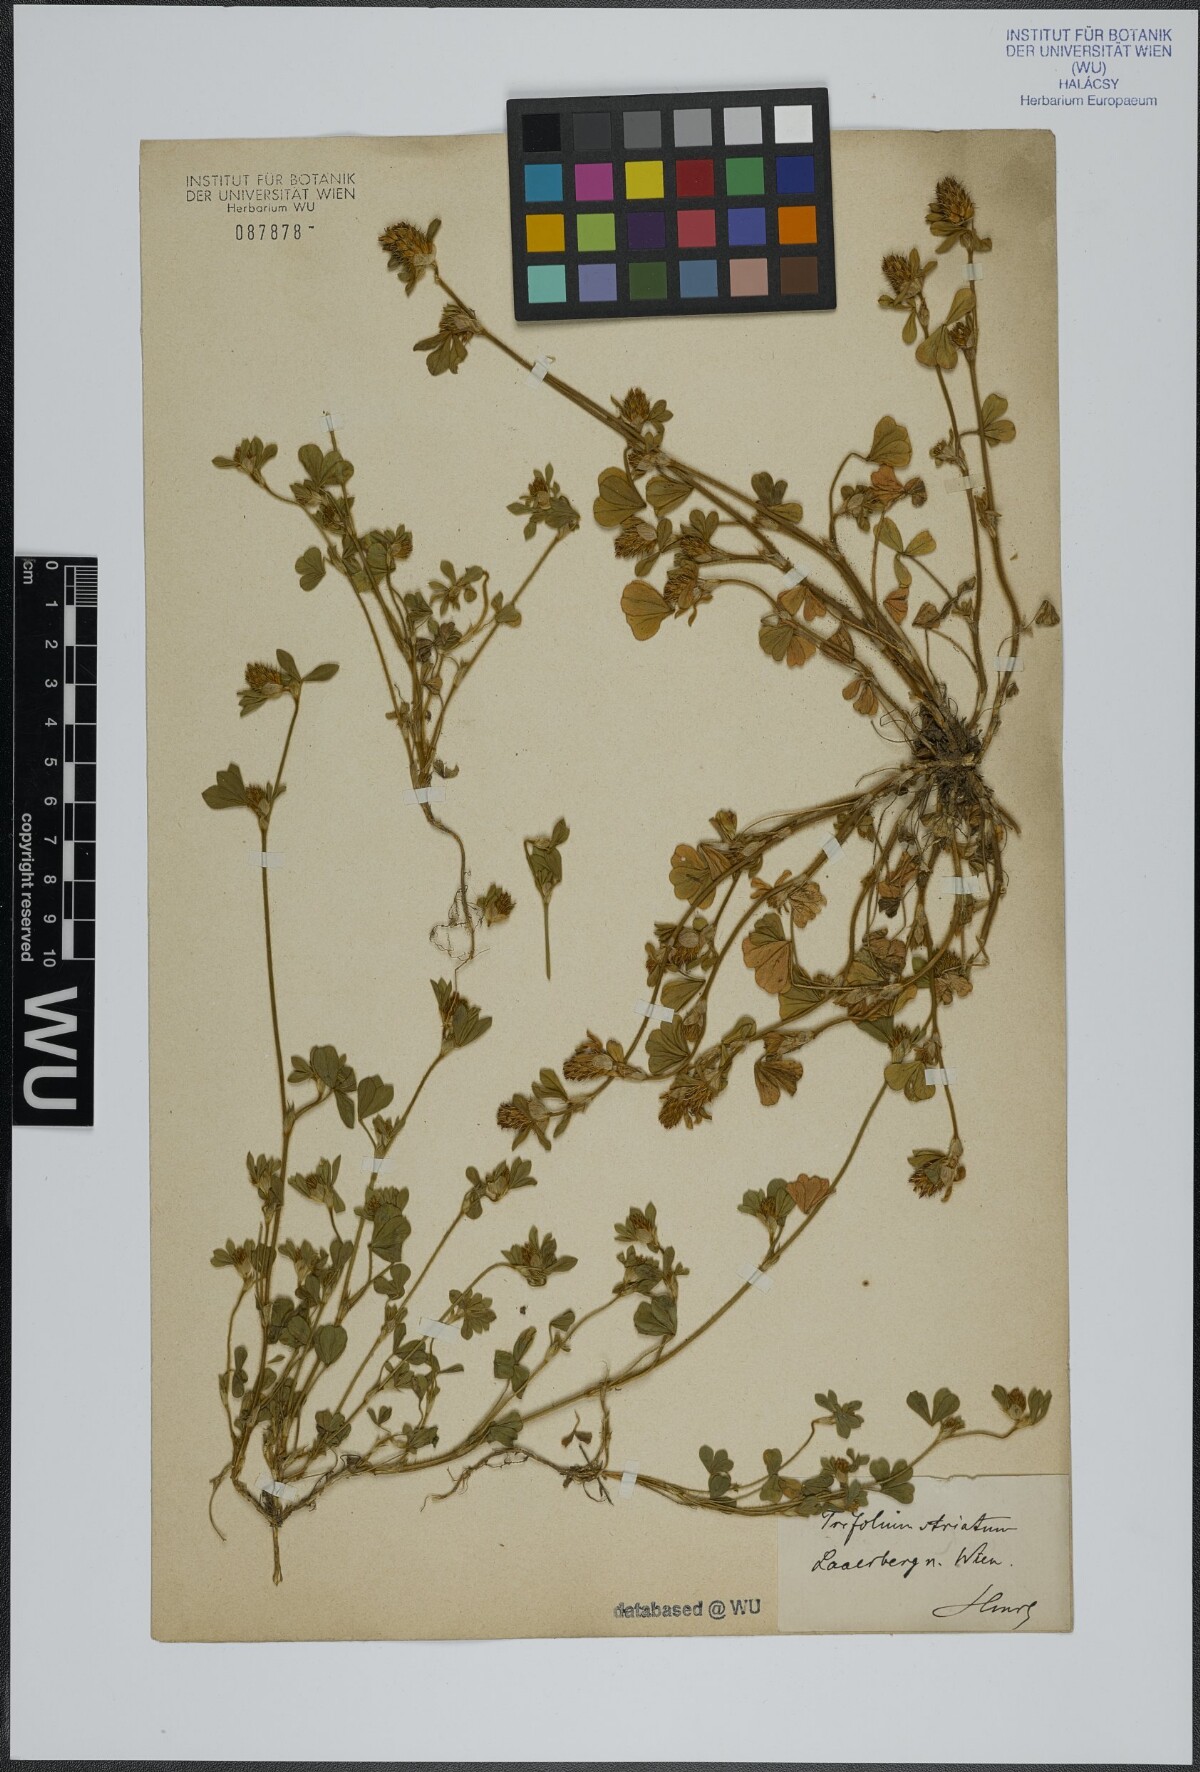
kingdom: Plantae
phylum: Tracheophyta
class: Magnoliopsida
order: Fabales
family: Fabaceae
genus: Trifolium
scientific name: Trifolium striatum
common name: Knotted clover
